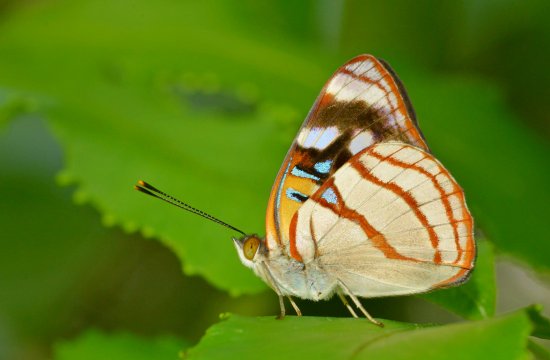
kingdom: Animalia
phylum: Arthropoda
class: Insecta
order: Lepidoptera
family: Nymphalidae
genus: Dynamine
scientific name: Dynamine sara
